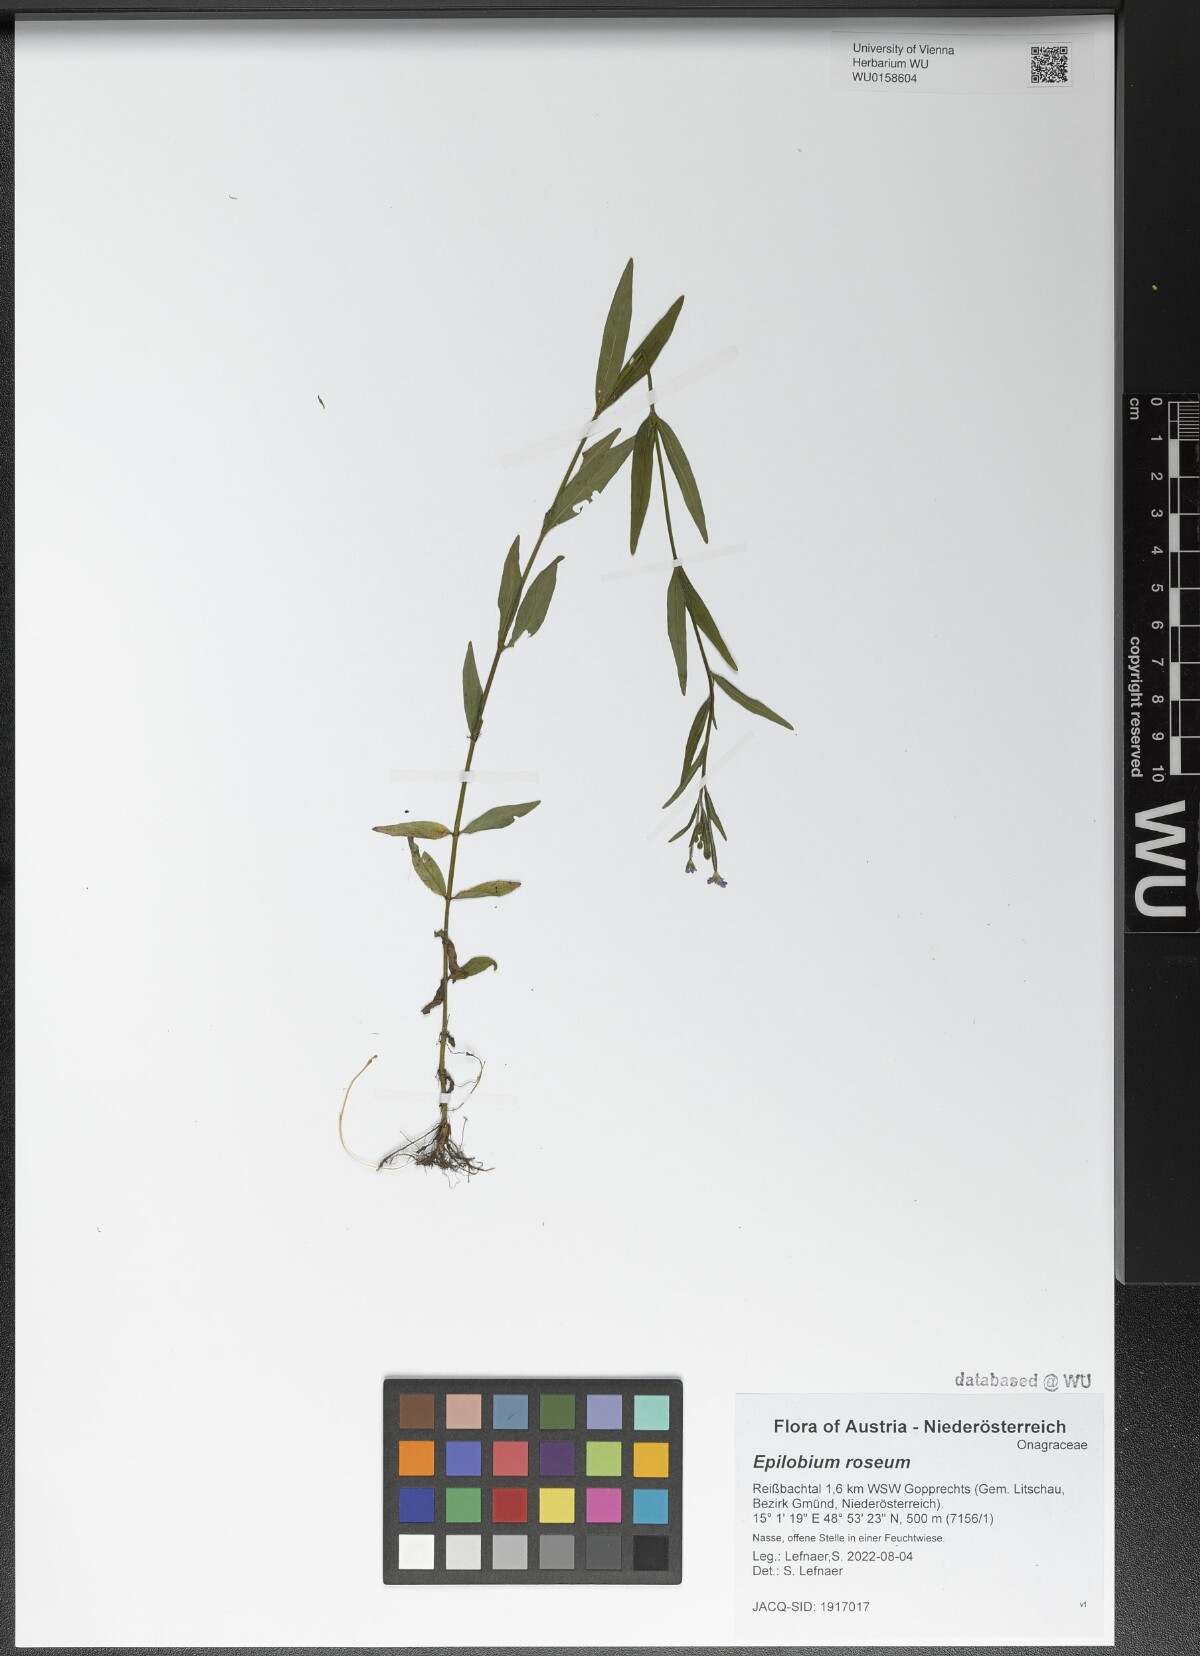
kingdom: Plantae
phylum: Tracheophyta
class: Magnoliopsida
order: Myrtales
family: Onagraceae
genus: Epilobium
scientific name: Epilobium roseum
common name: Pale willowherb
